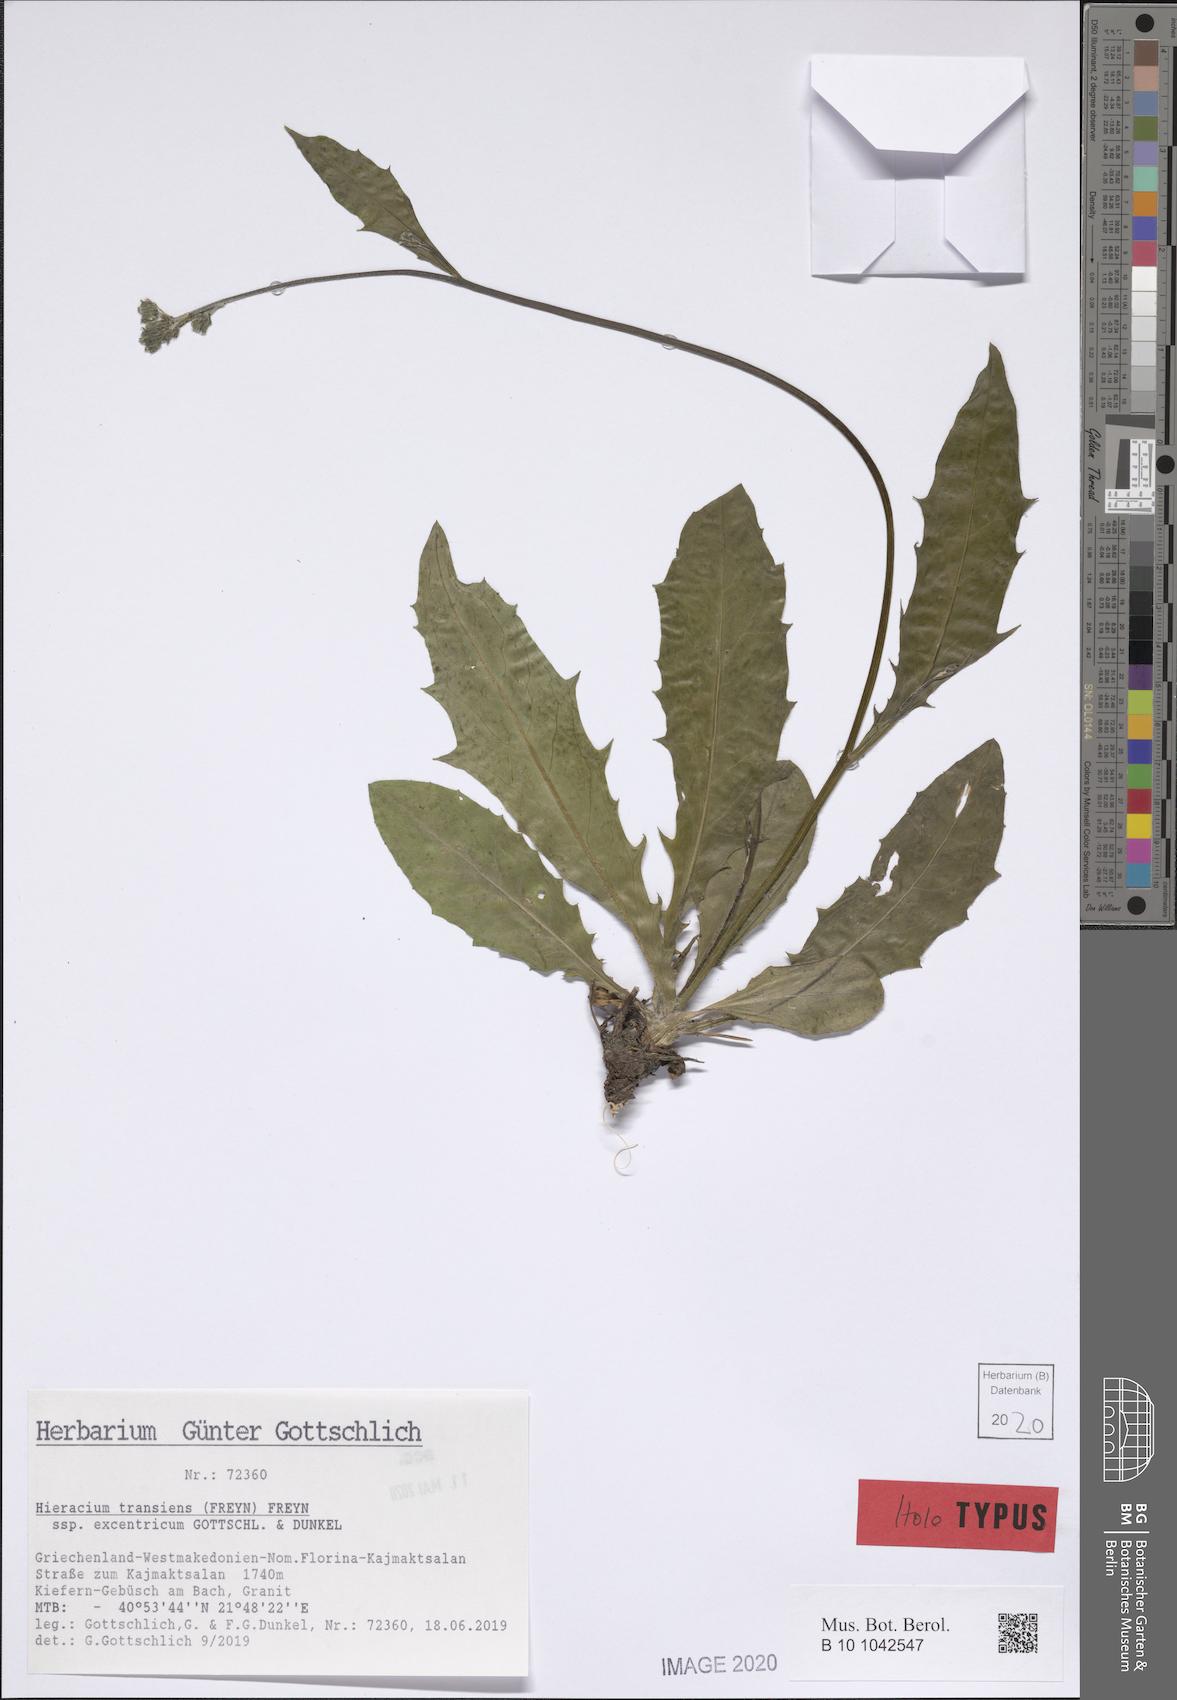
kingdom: Plantae
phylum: Tracheophyta
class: Magnoliopsida
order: Asterales
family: Asteraceae
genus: Hieracium
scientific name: Hieracium transiens
